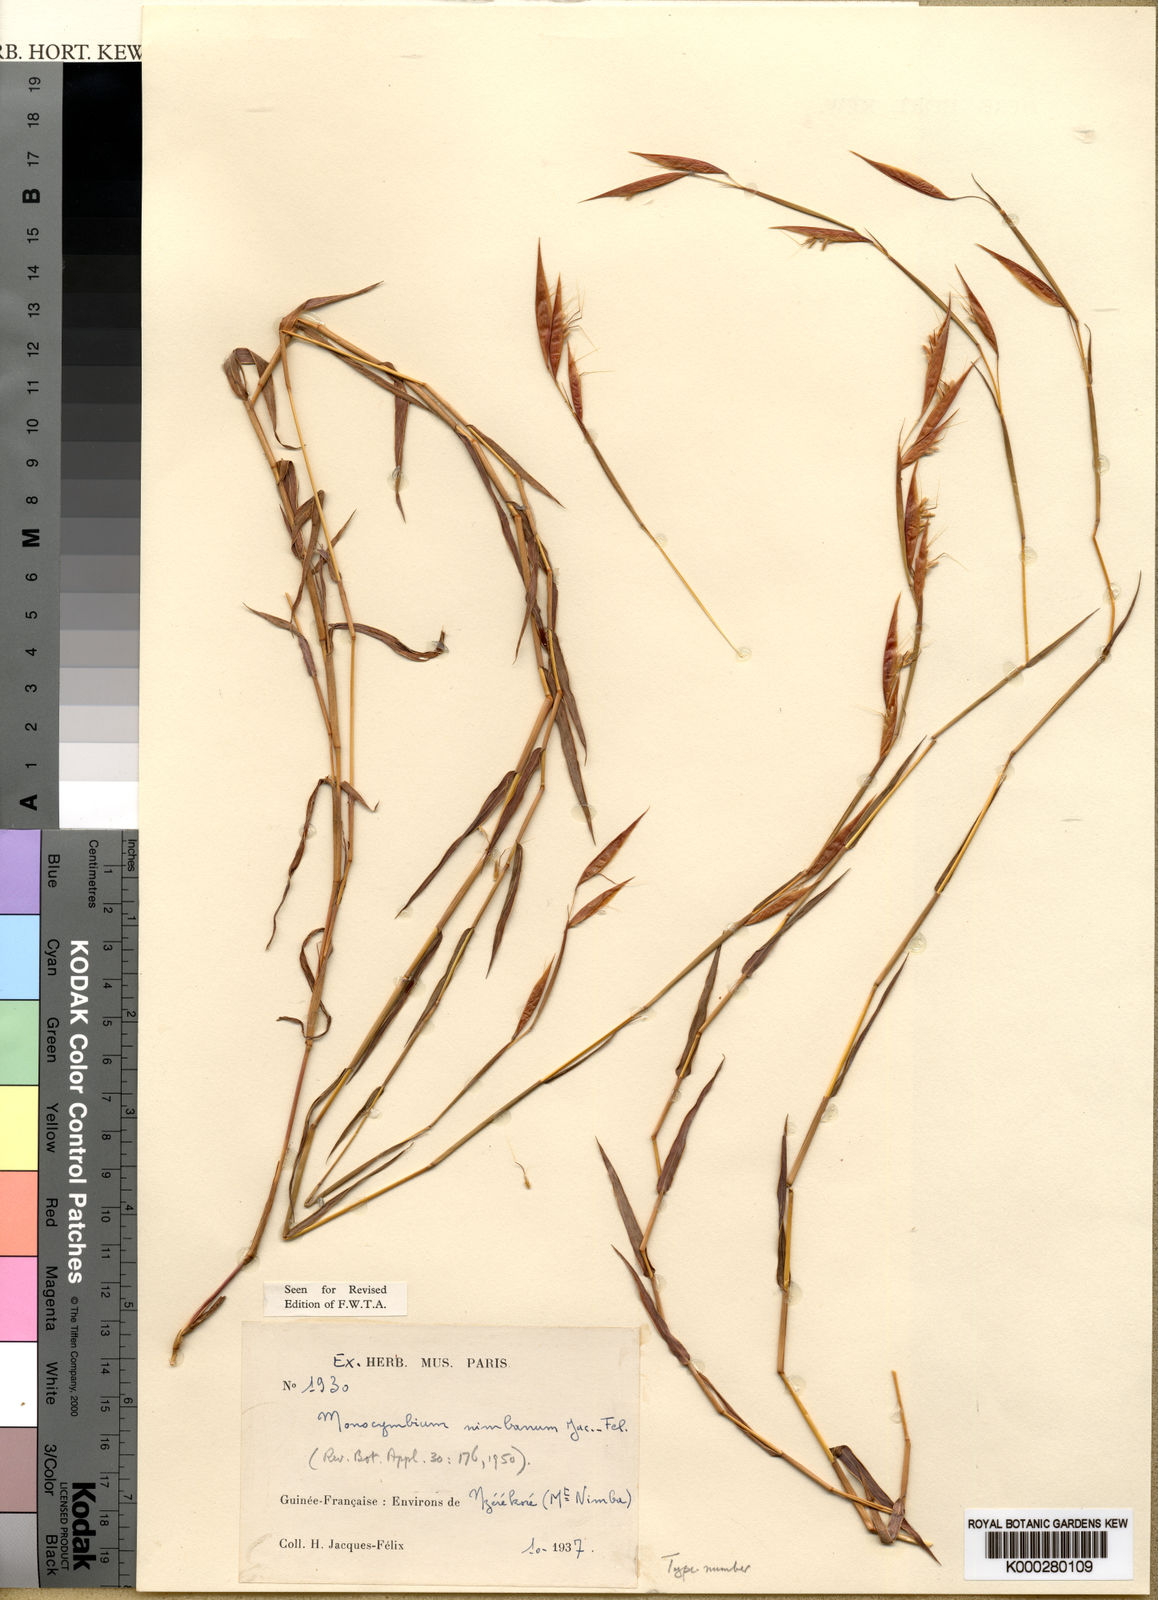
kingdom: Plantae
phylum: Tracheophyta
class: Liliopsida
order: Poales
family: Poaceae
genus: Monocymbium
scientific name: Monocymbium ceresiiforme
